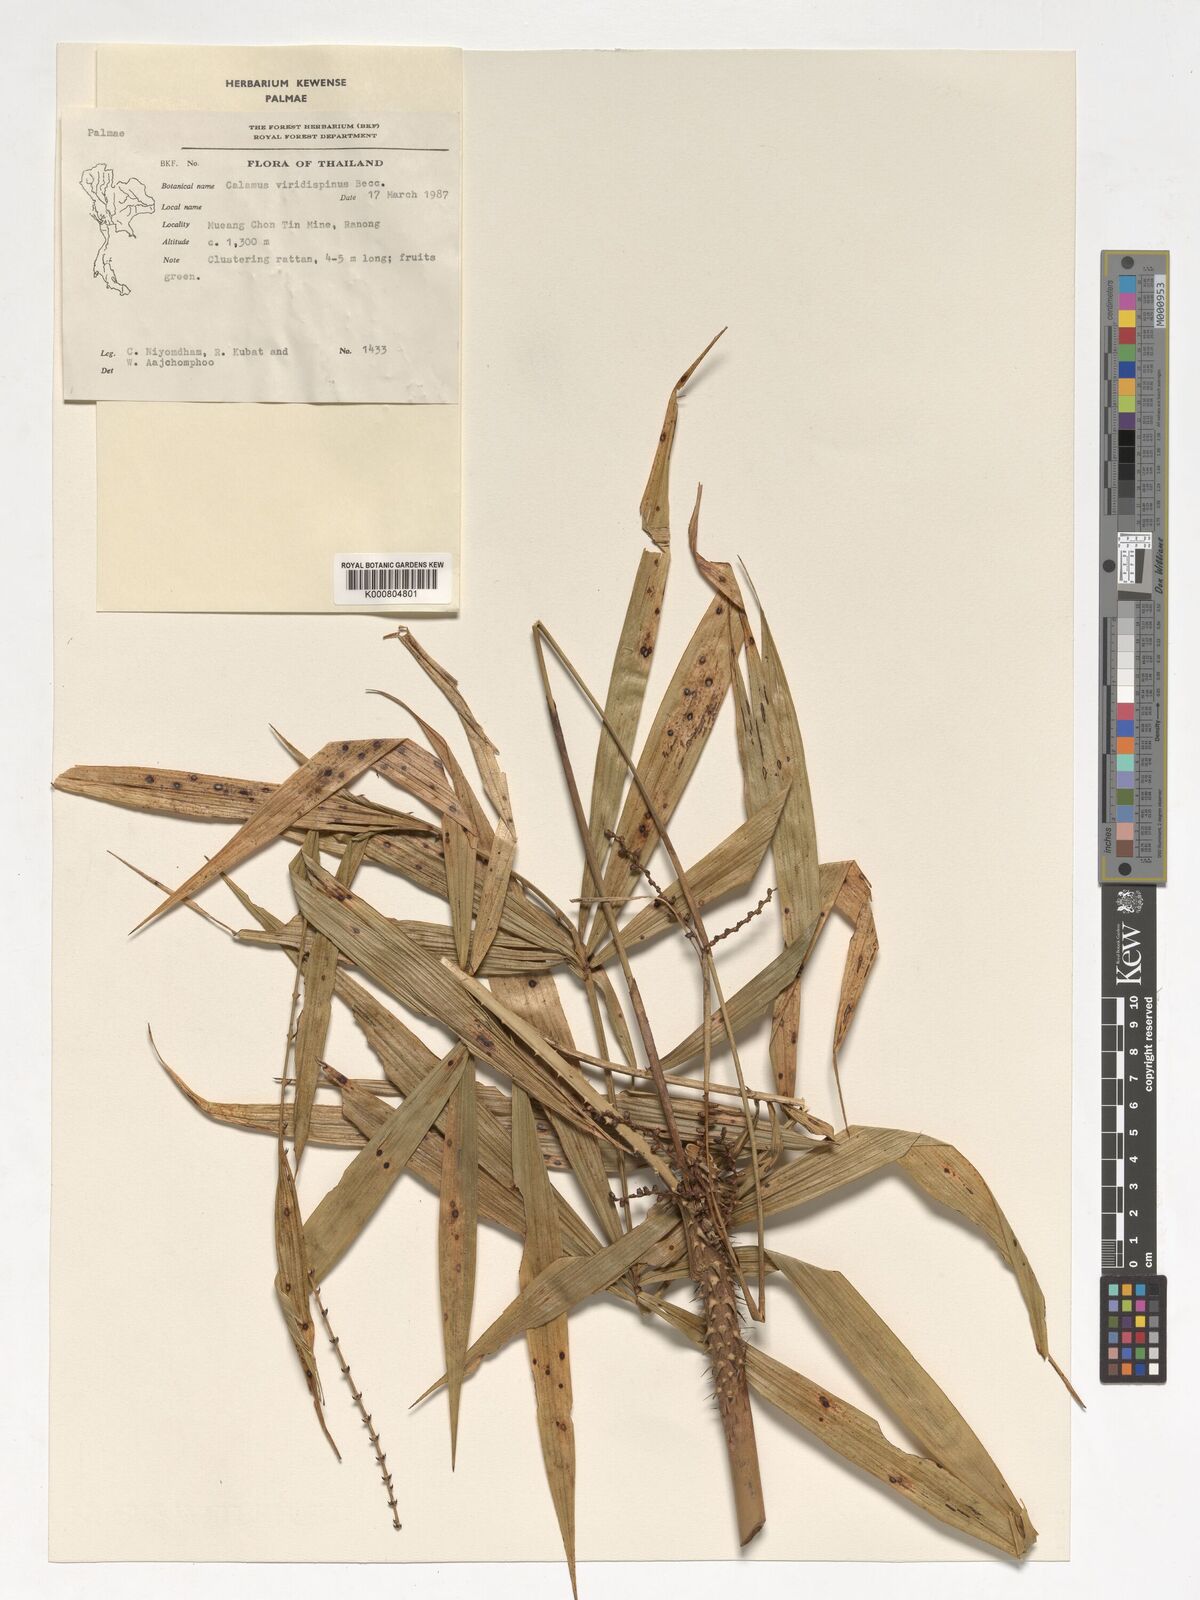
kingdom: Plantae
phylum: Tracheophyta
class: Liliopsida
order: Arecales
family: Arecaceae
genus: Calamus
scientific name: Calamus helferianus
